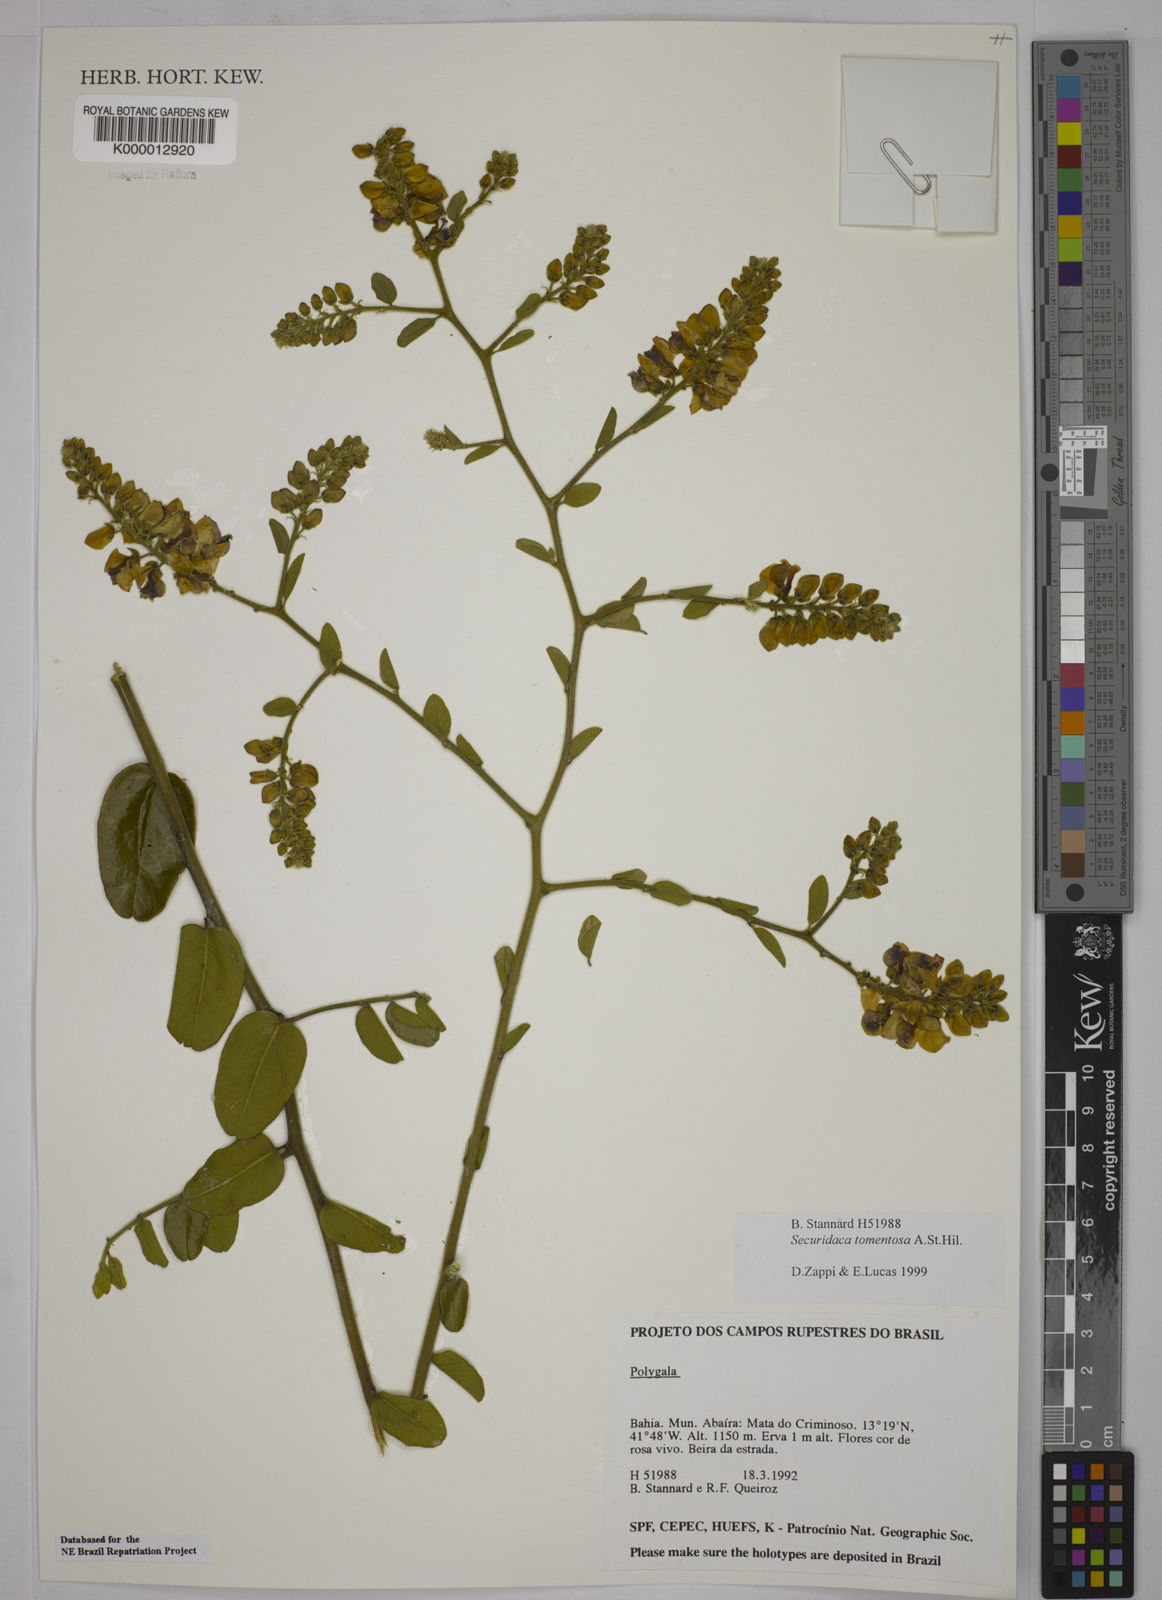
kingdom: Plantae
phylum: Tracheophyta
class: Magnoliopsida
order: Fabales
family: Polygalaceae
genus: Securidaca
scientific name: Securidaca tomentosa
